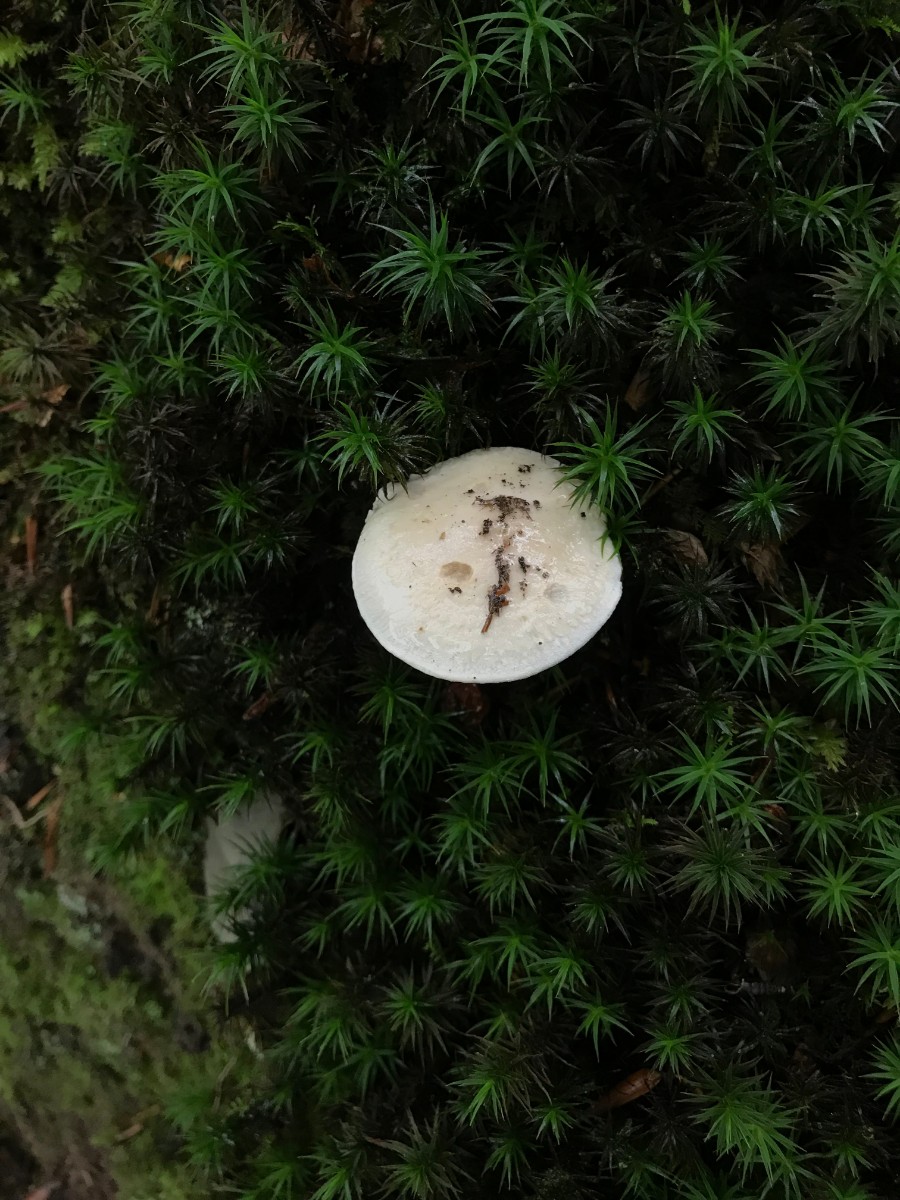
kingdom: Fungi
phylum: Basidiomycota
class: Agaricomycetes
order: Agaricales
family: Hygrophoraceae
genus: Hygrophorus
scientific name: Hygrophorus
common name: sneglehat
